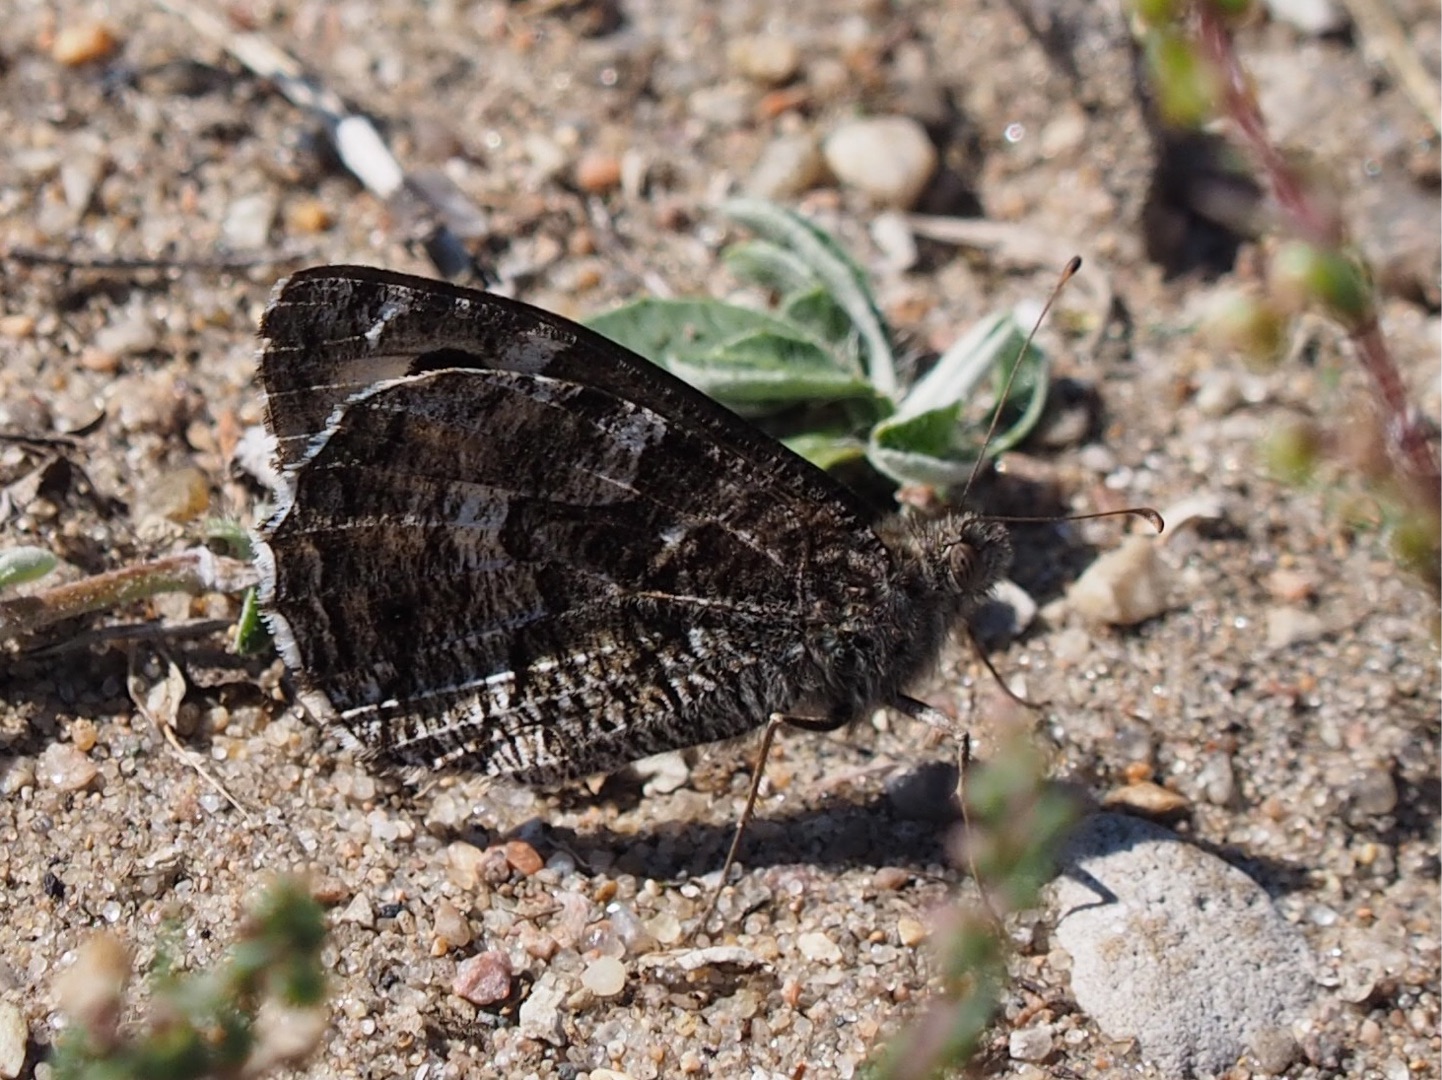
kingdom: Animalia
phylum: Arthropoda
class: Insecta
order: Lepidoptera
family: Nymphalidae
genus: Hipparchia
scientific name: Hipparchia semele
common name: Sandrandøje
